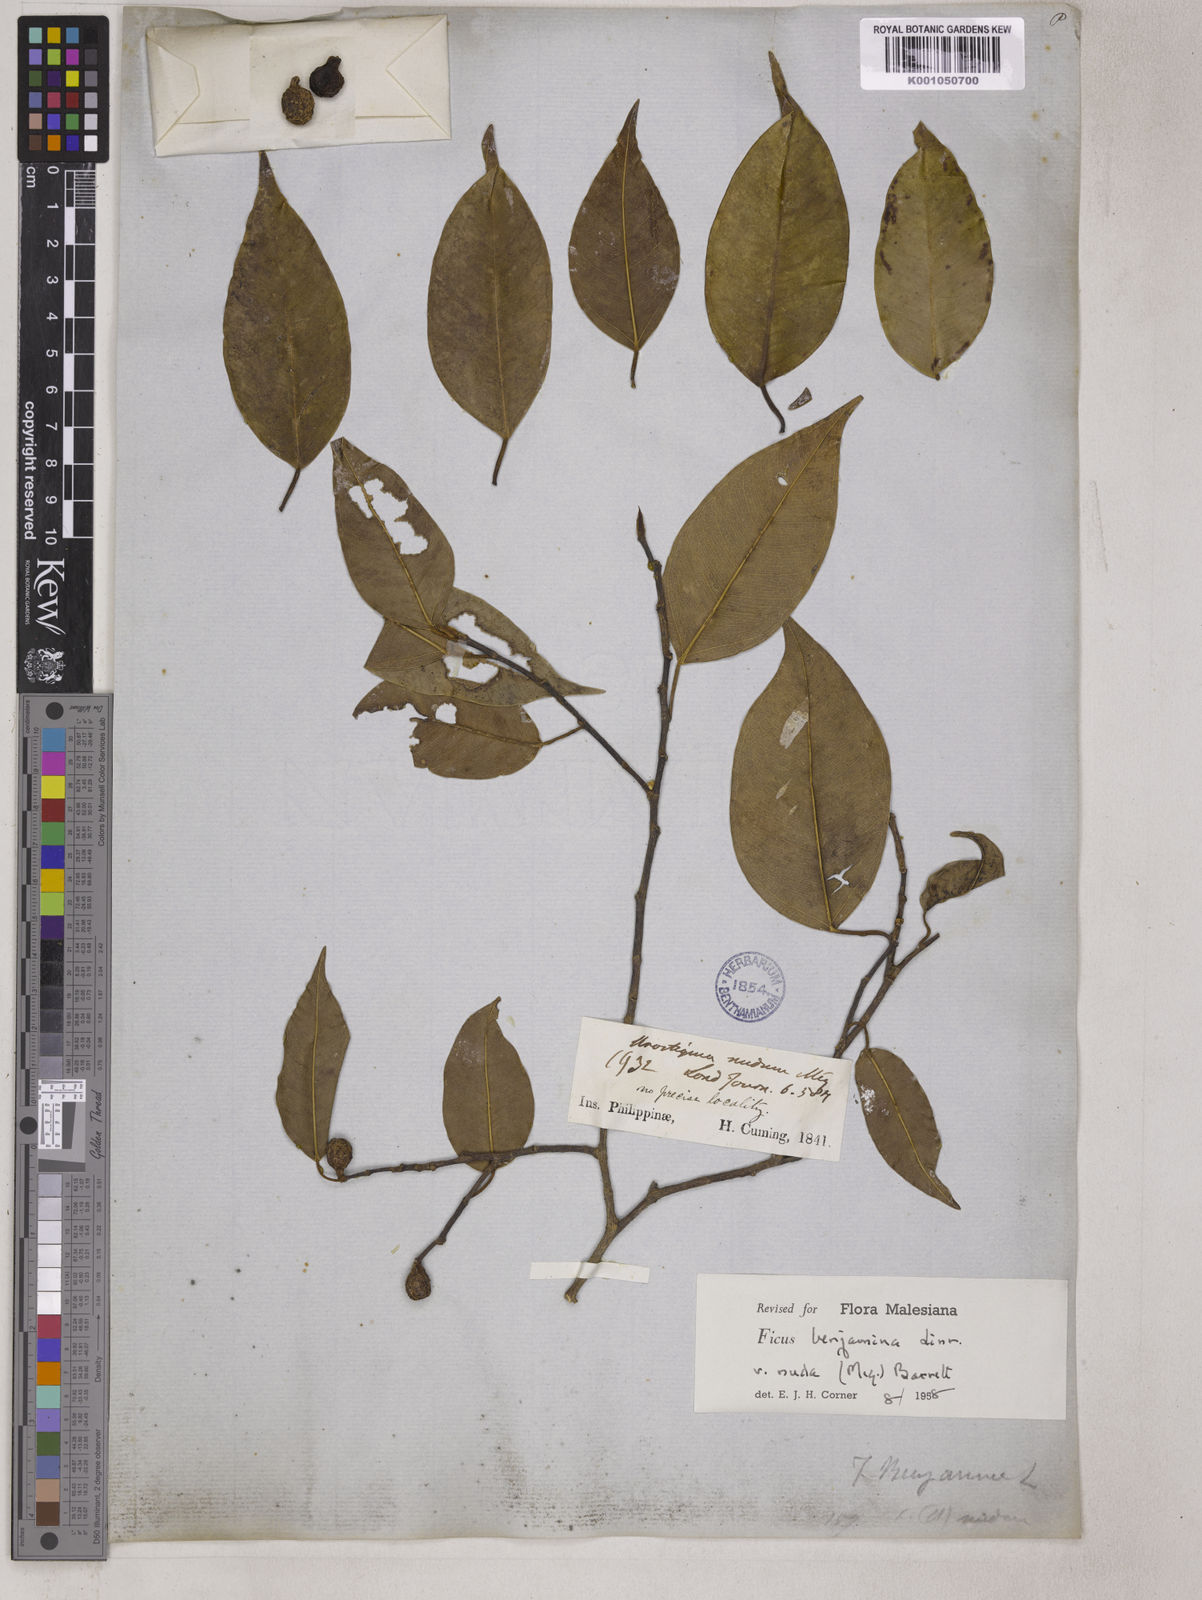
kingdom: Plantae
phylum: Tracheophyta
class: Magnoliopsida
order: Rosales
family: Moraceae
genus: Ficus
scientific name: Ficus benjamina
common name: Weeping fig
